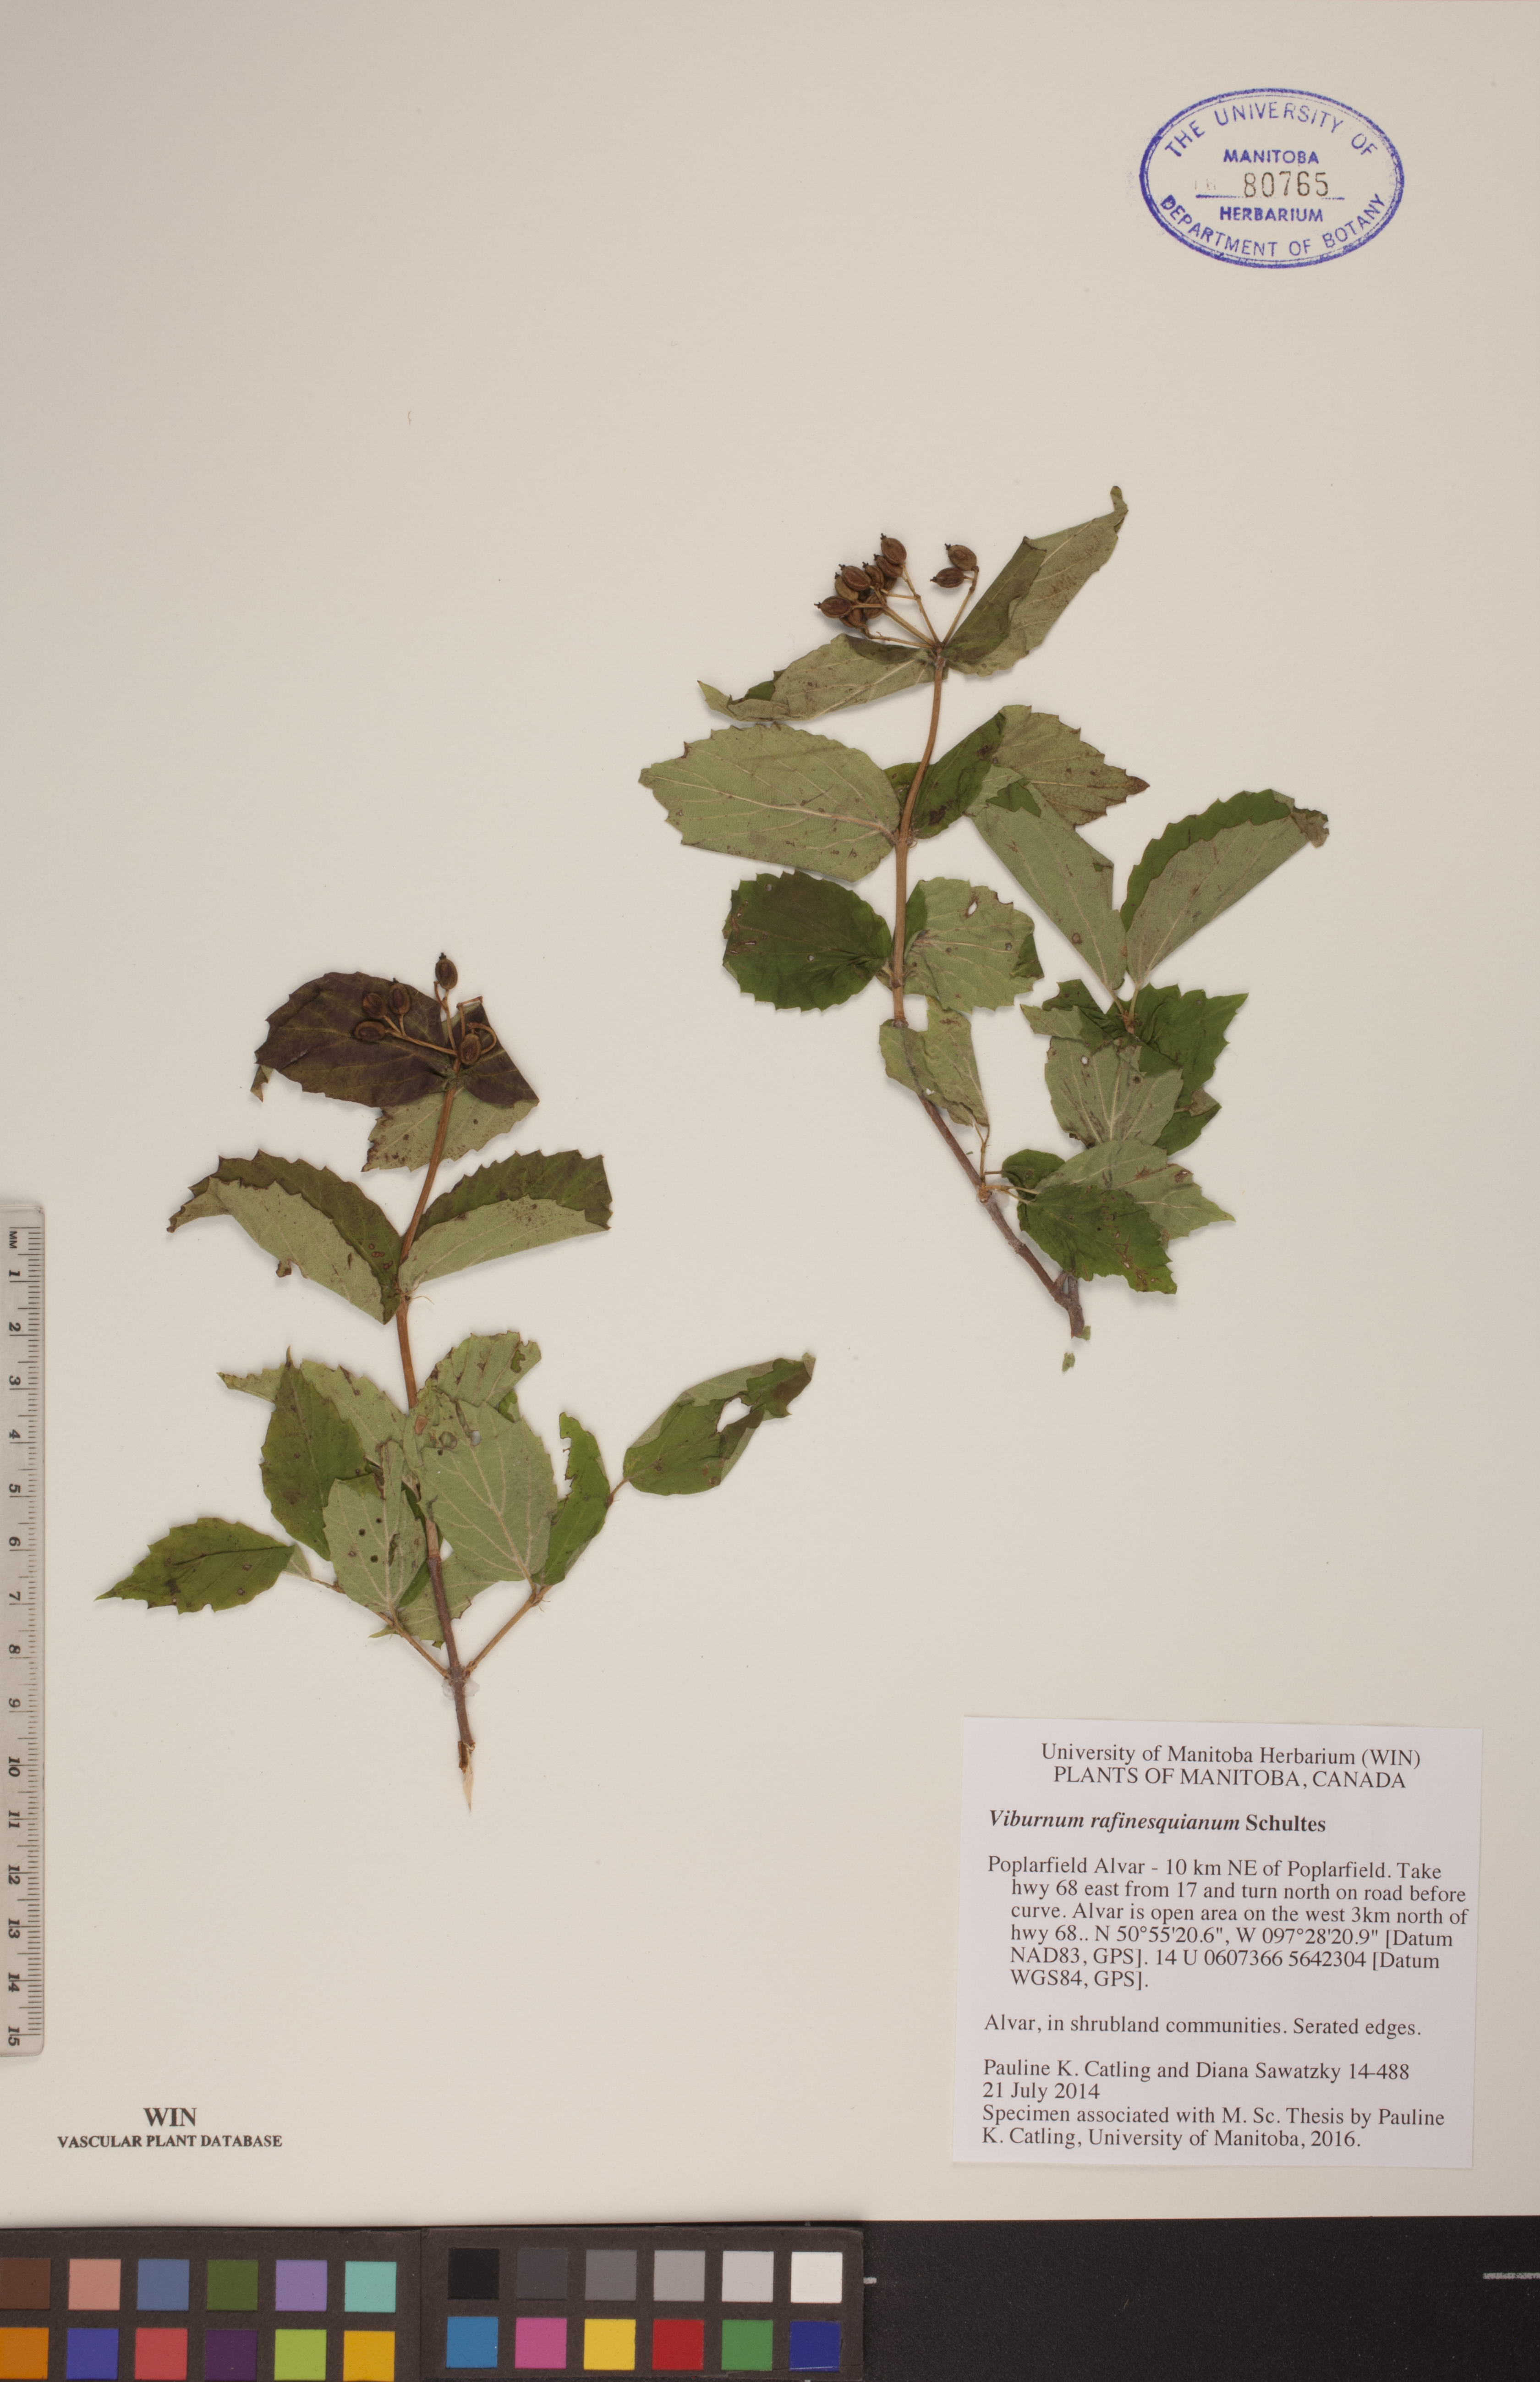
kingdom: Plantae
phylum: Tracheophyta
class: Magnoliopsida
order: Dipsacales
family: Viburnaceae
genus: Viburnum
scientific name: Viburnum rafinesquianum
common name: Downy arrow-wood
